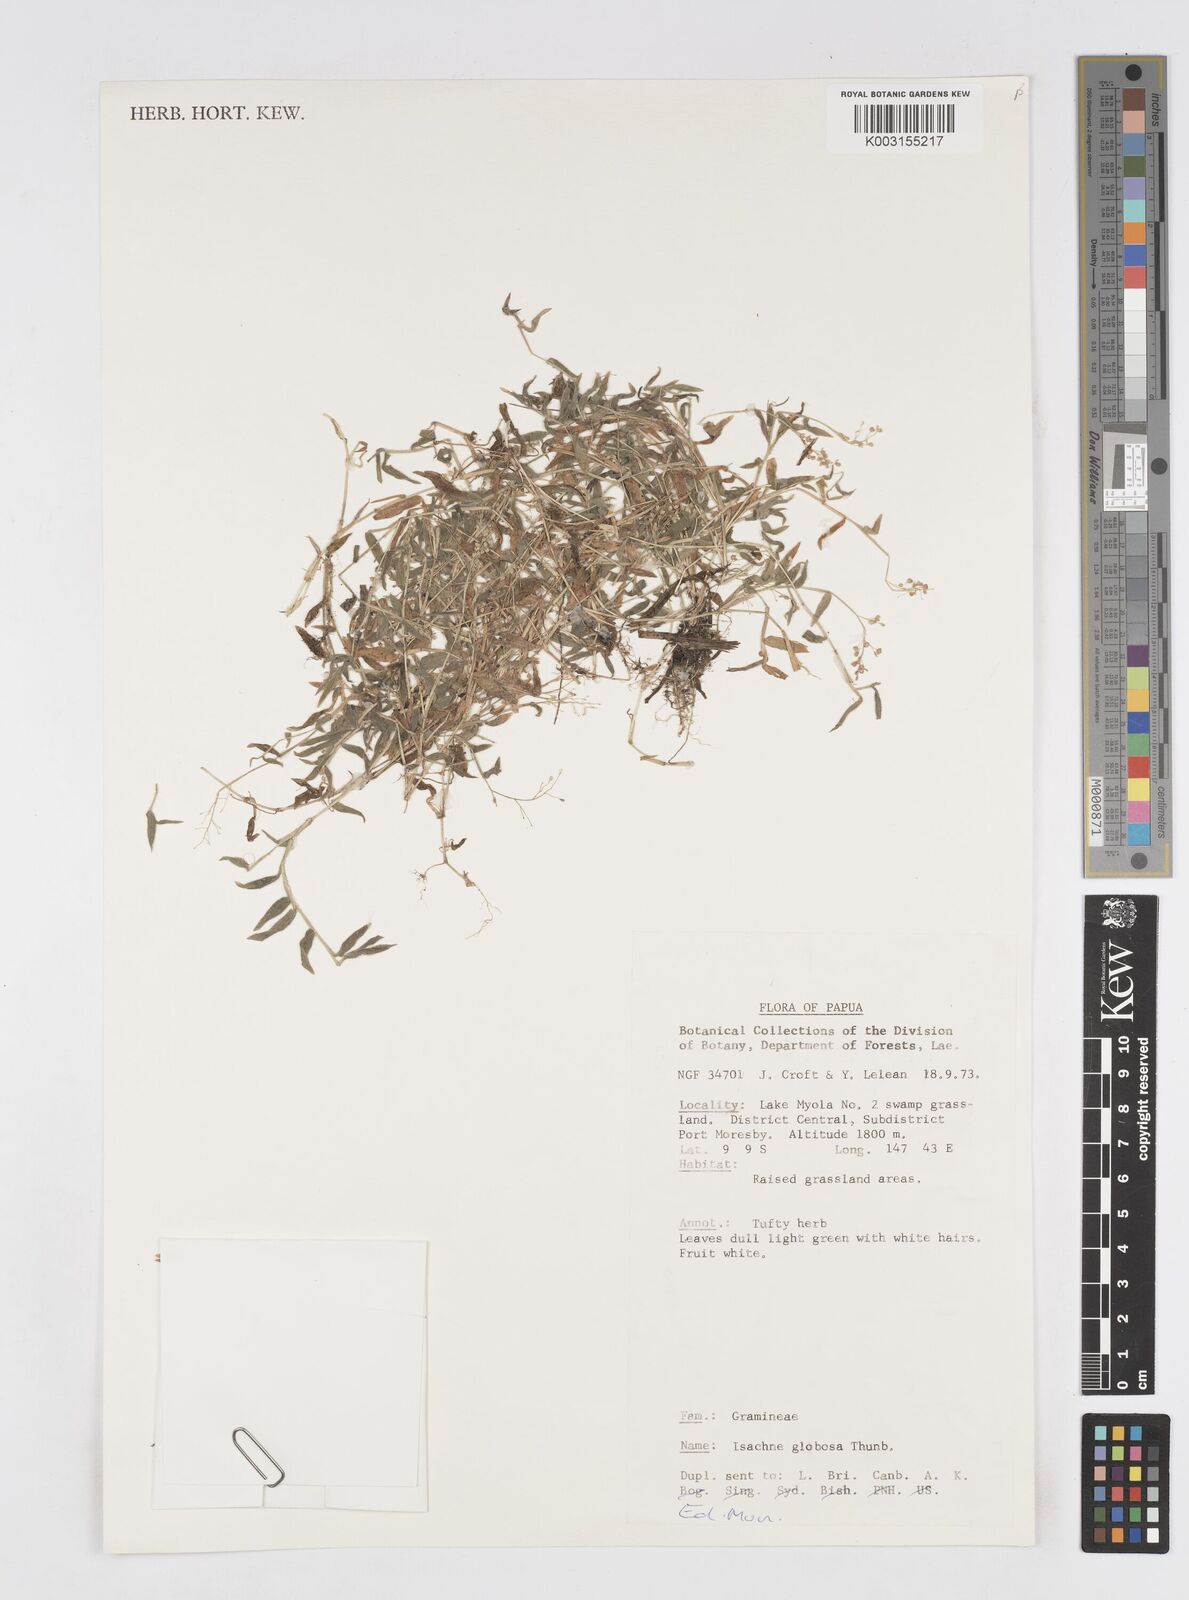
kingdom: Plantae
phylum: Tracheophyta
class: Liliopsida
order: Poales
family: Poaceae
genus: Isachne
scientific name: Isachne globosa
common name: Swamp millet
